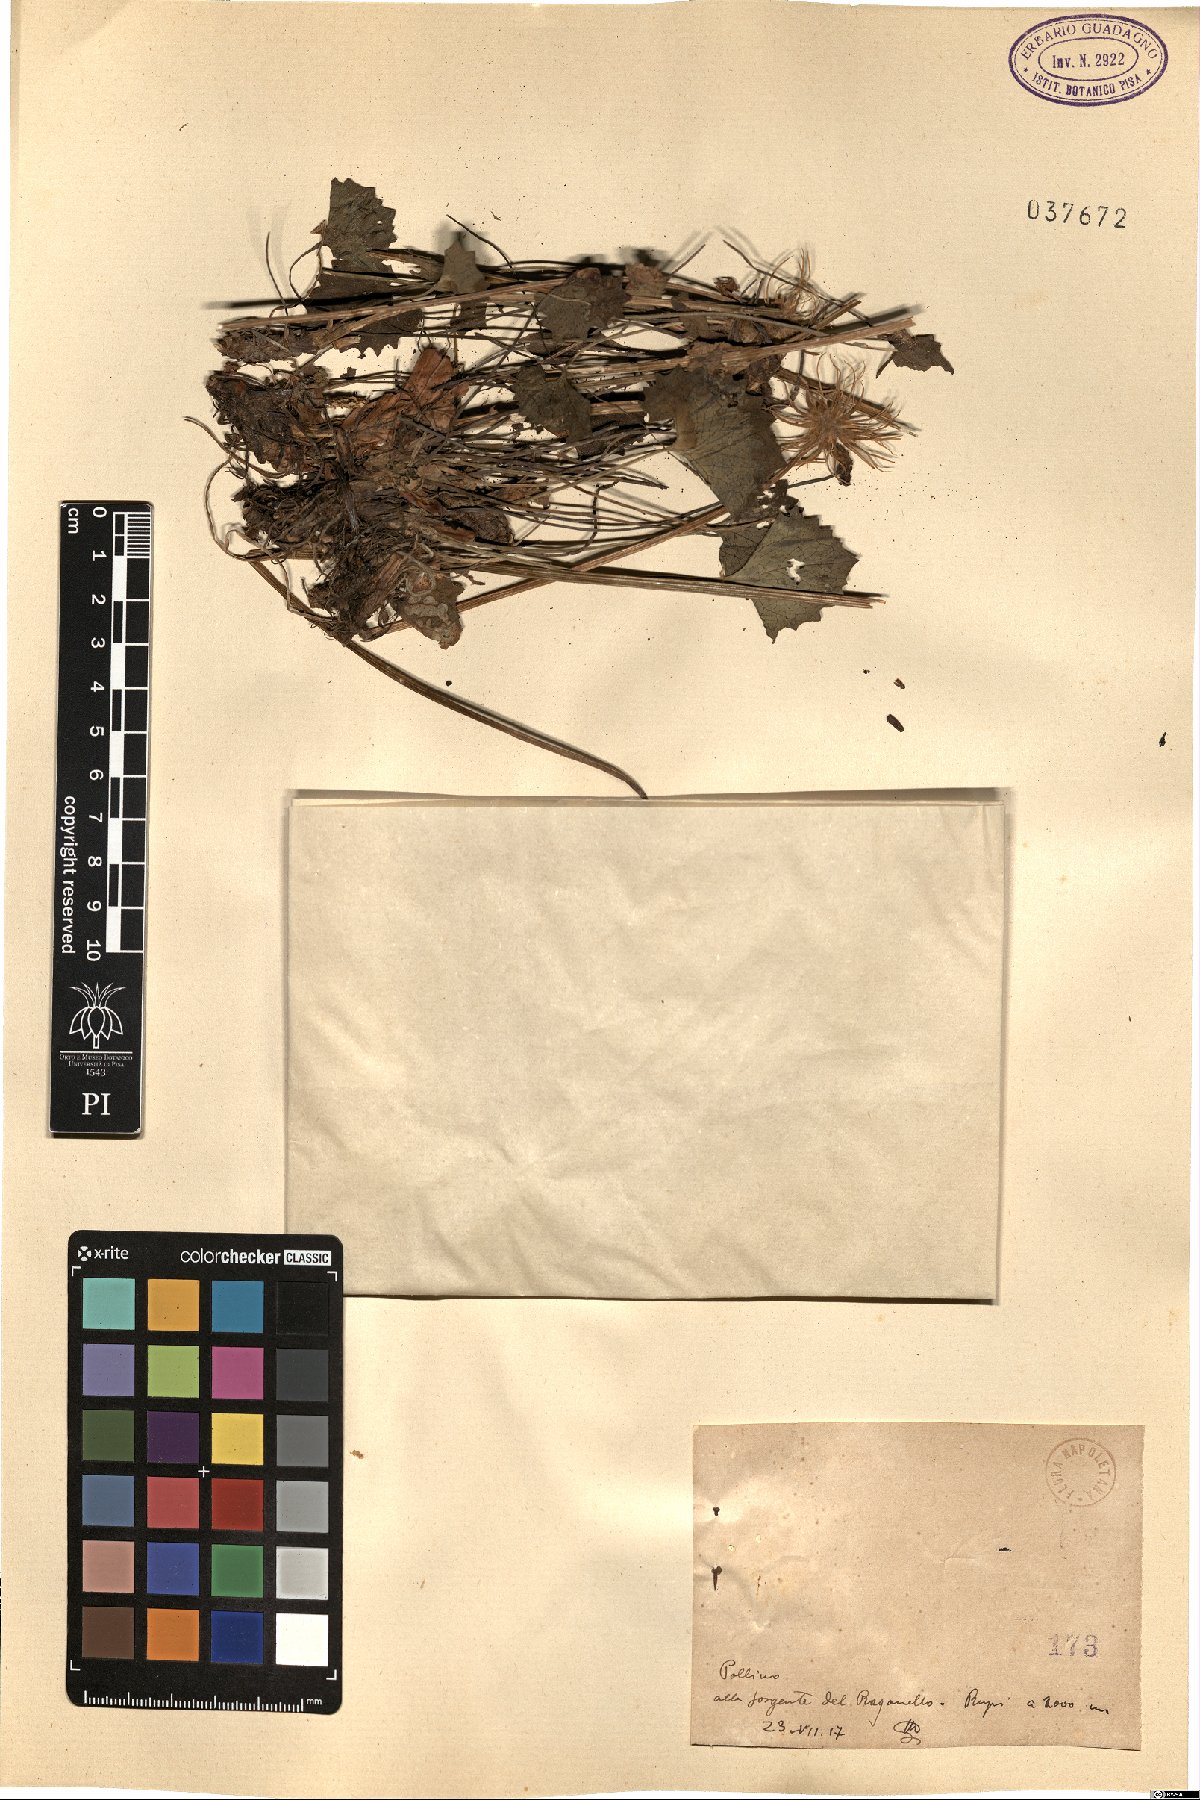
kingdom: Plantae
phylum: Tracheophyta
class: Magnoliopsida
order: Asterales
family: Asteraceae
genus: Doronicum
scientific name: Doronicum
